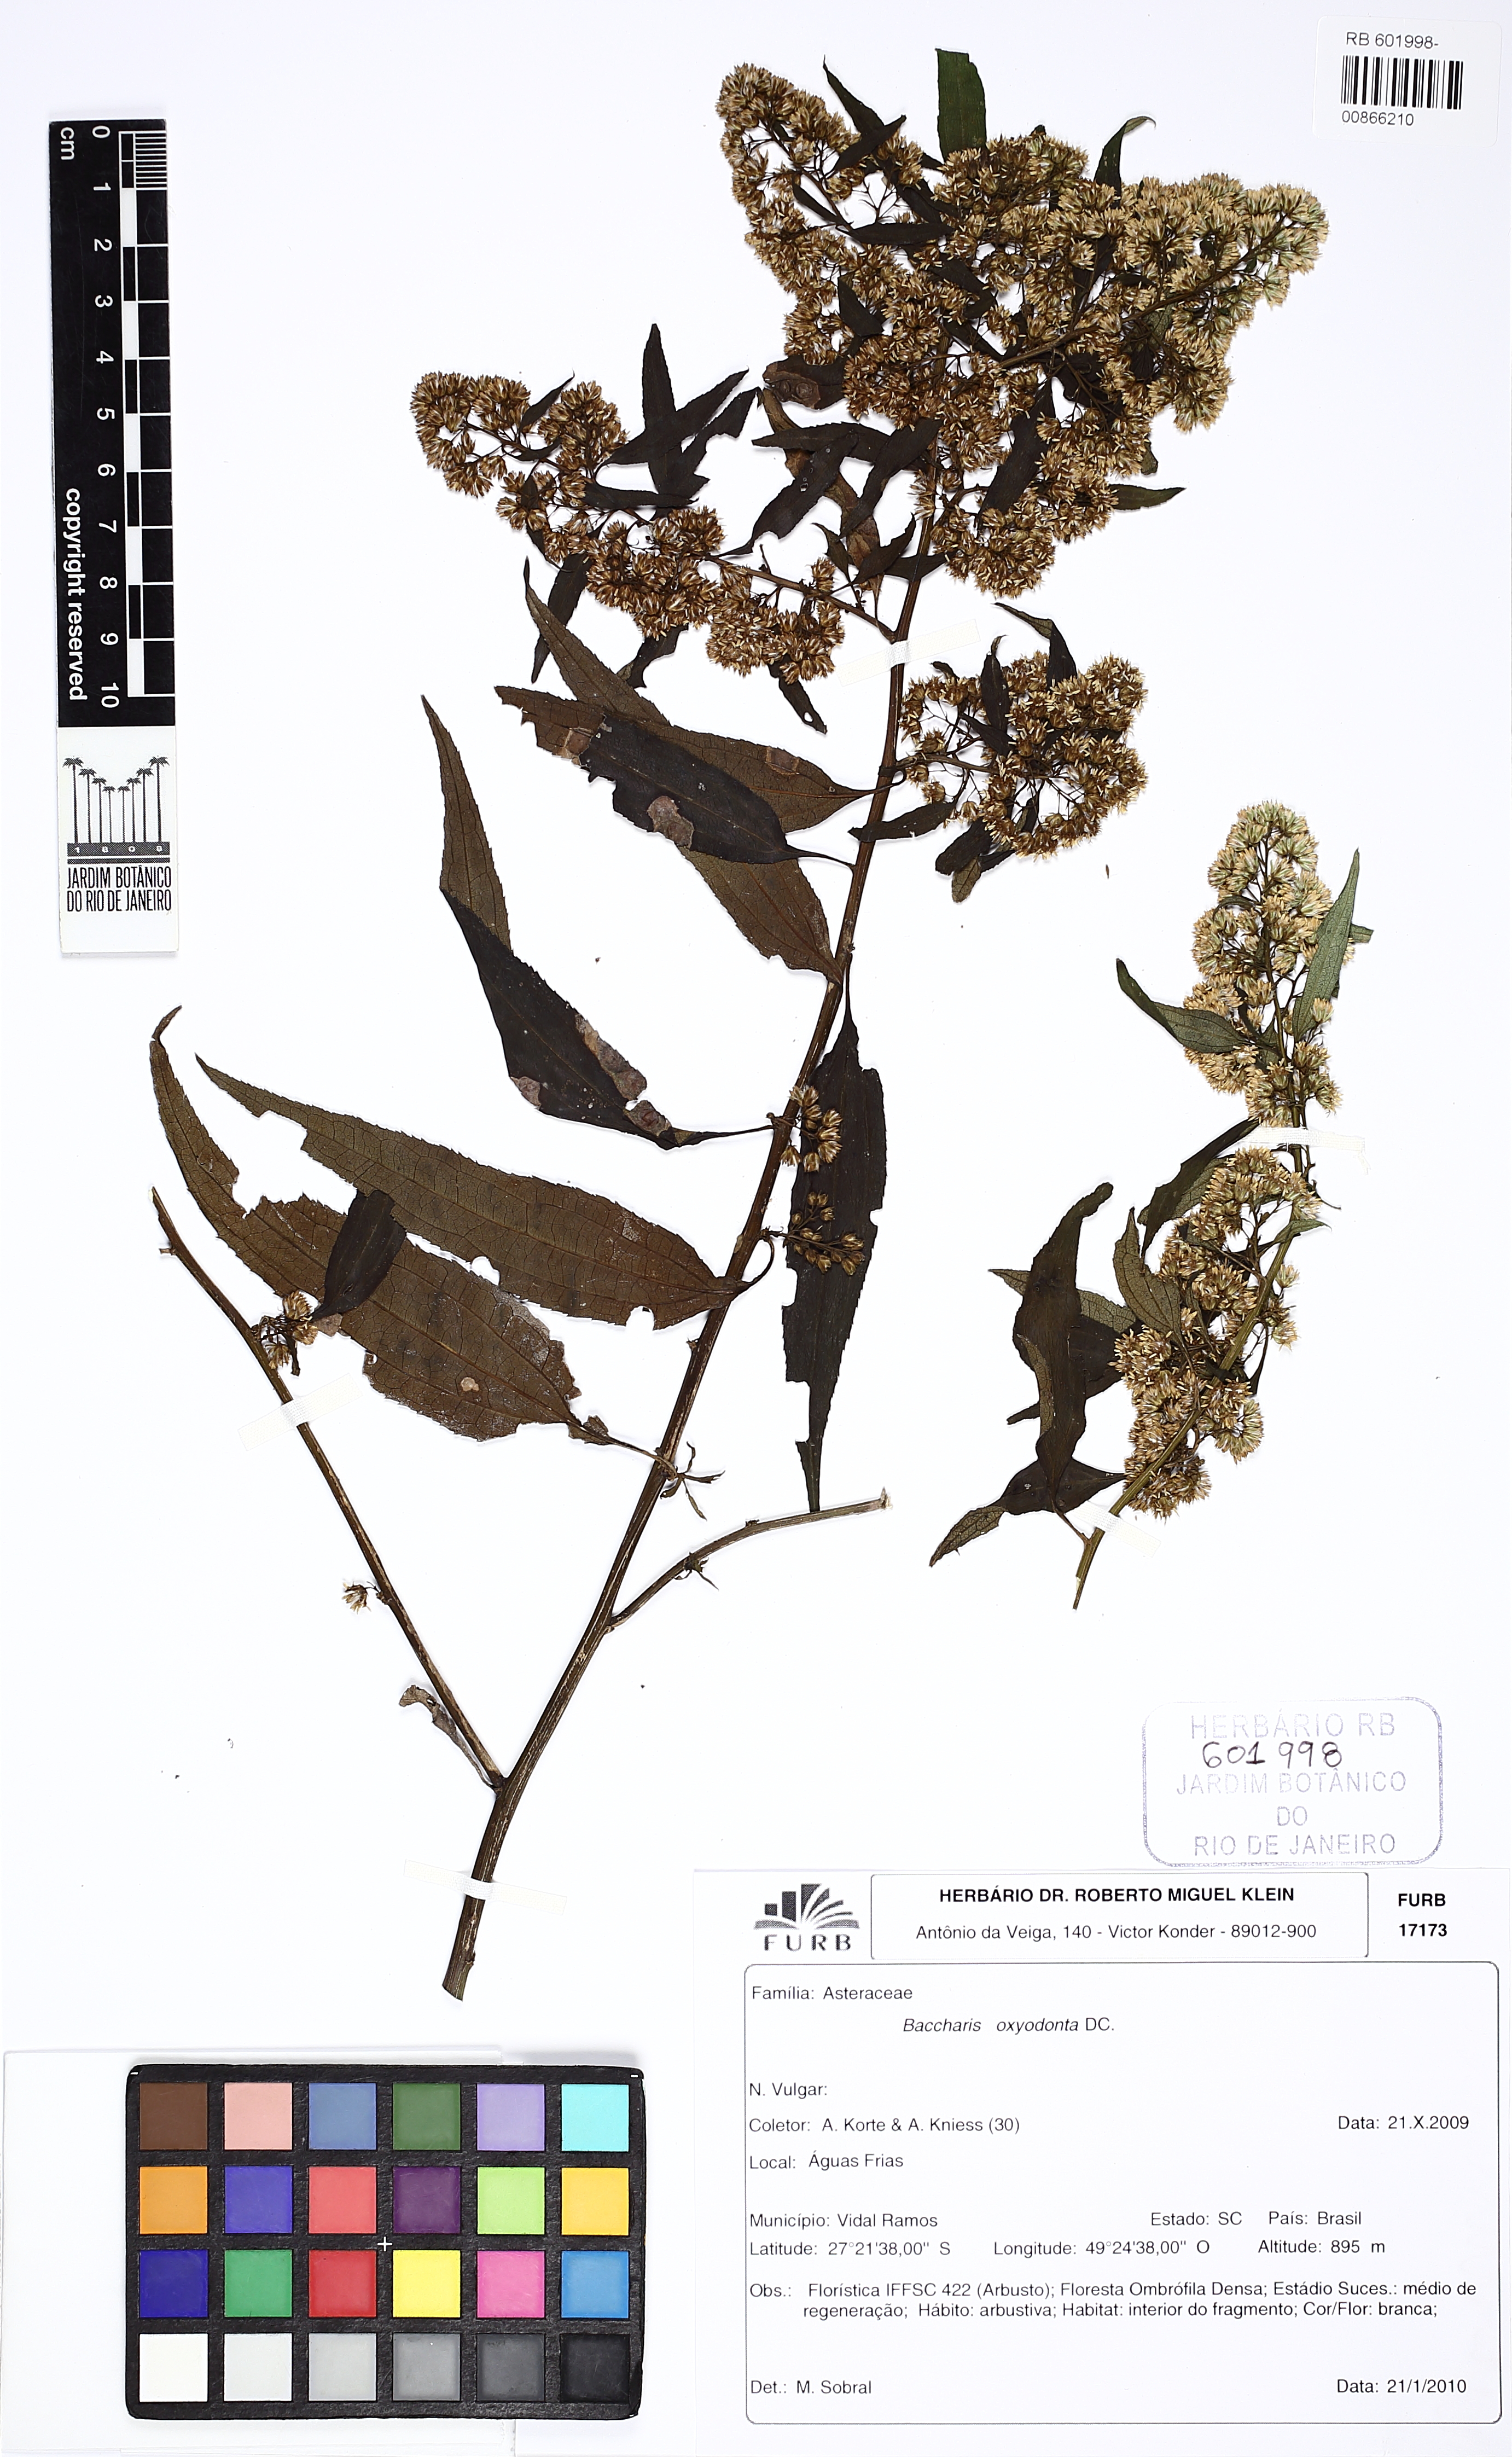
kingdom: Plantae
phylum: Tracheophyta
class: Magnoliopsida
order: Asterales
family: Asteraceae
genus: Baccharis
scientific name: Baccharis oxyodonta
